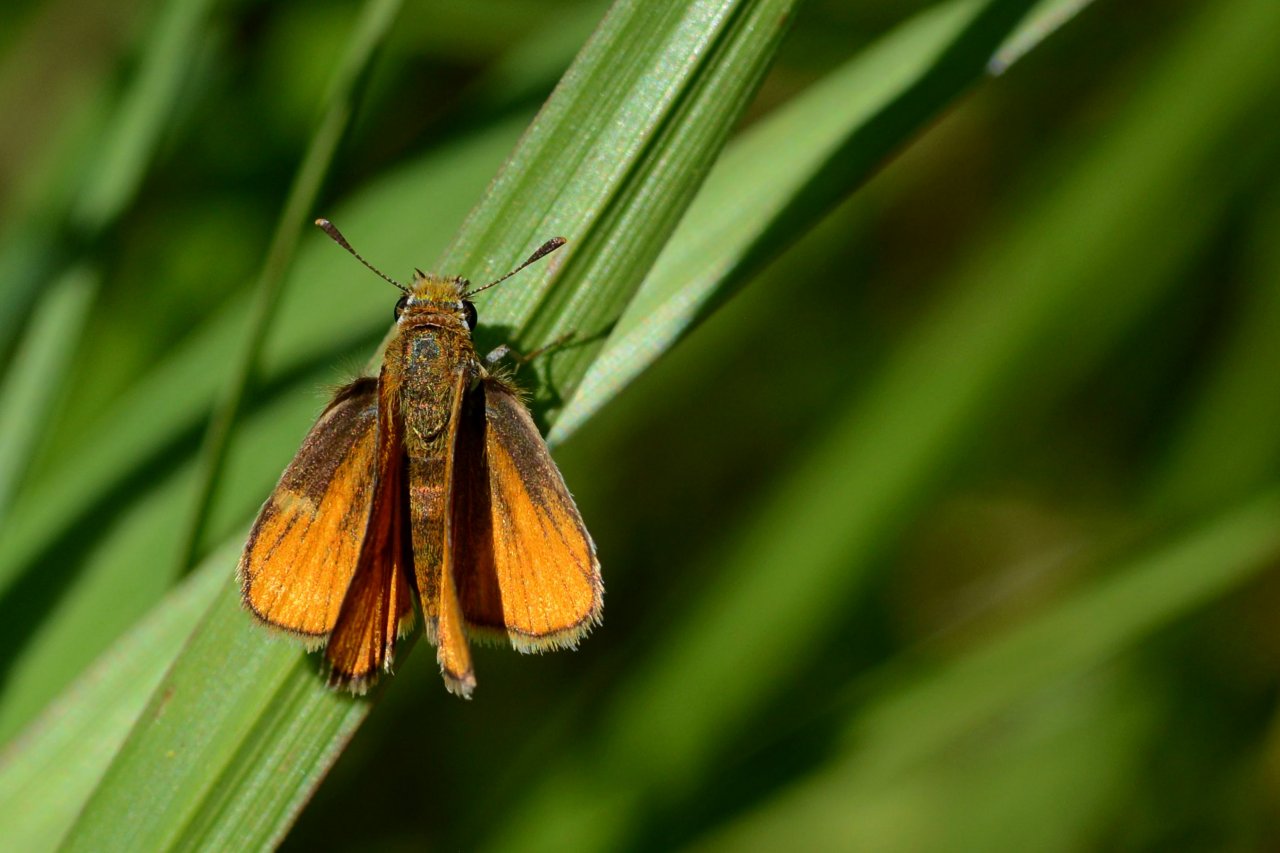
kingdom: Animalia
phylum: Arthropoda
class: Insecta
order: Lepidoptera
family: Hesperiidae
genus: Copaeodes
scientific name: Copaeodes minima
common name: Southern Skipperling
